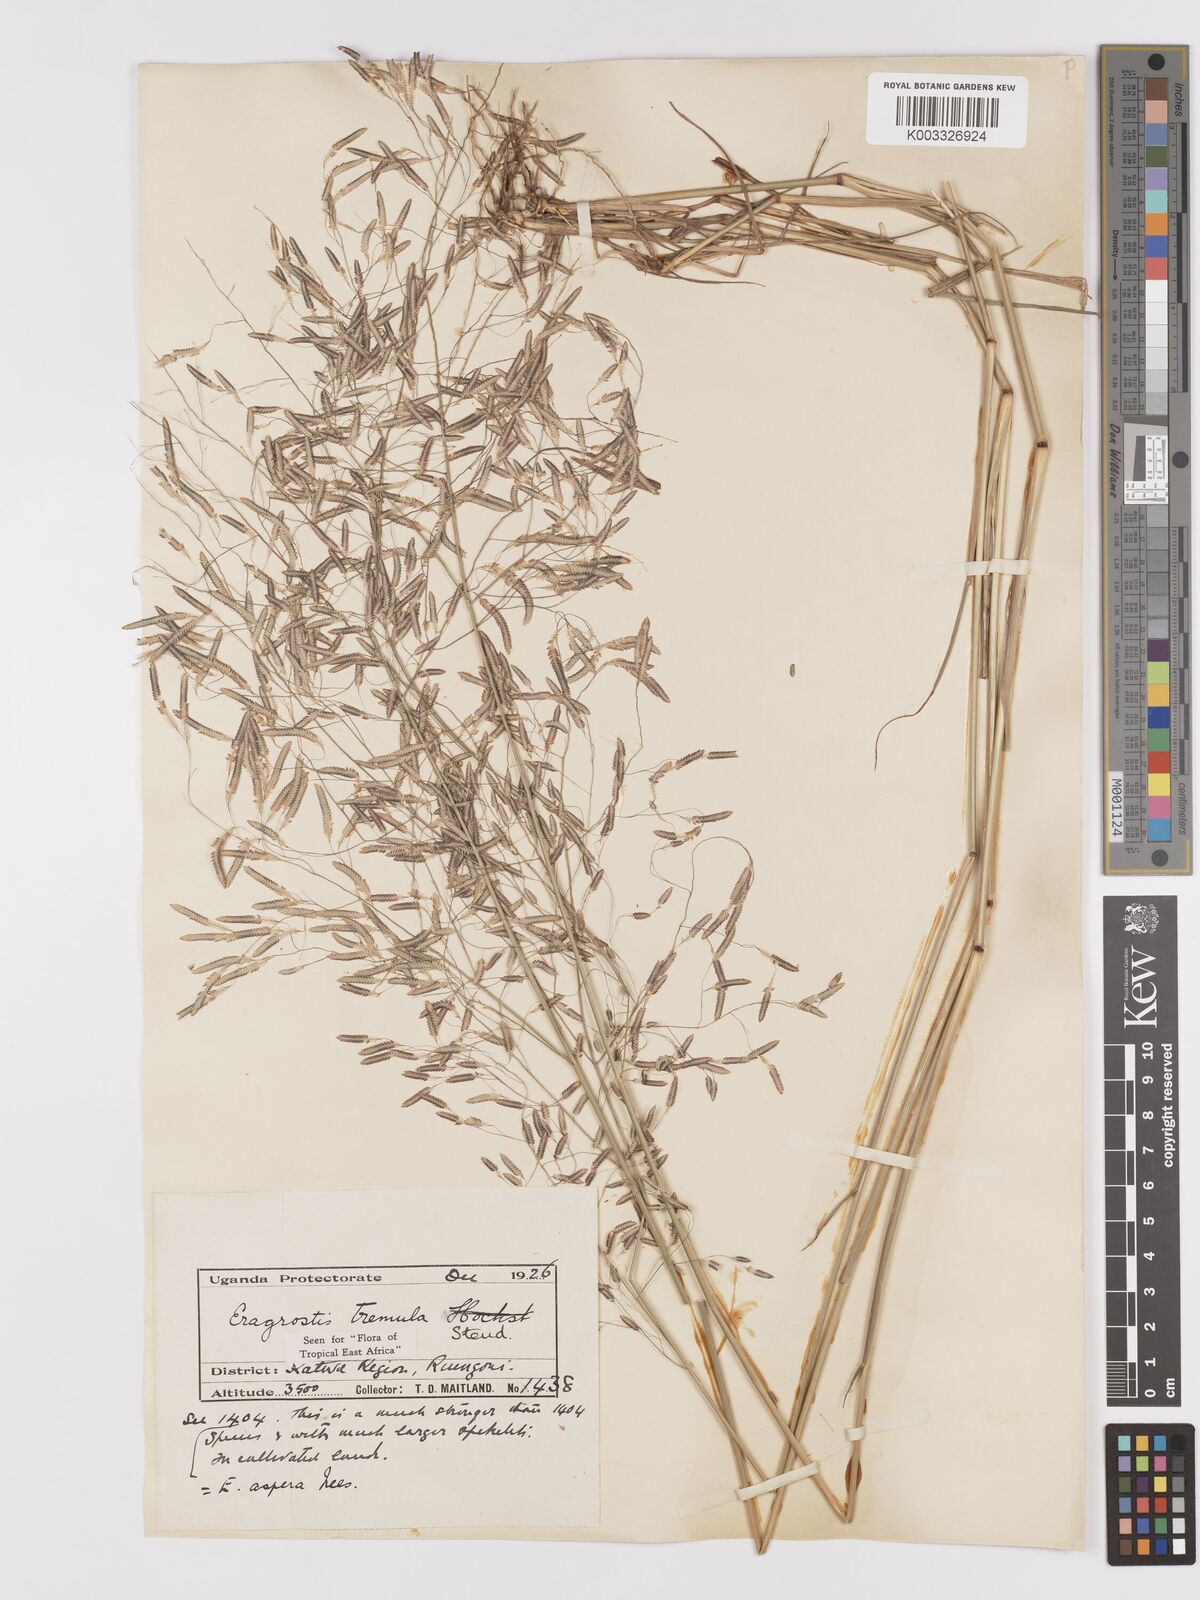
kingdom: Plantae
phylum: Tracheophyta
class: Liliopsida
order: Poales
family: Poaceae
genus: Eragrostis
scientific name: Eragrostis tremula
